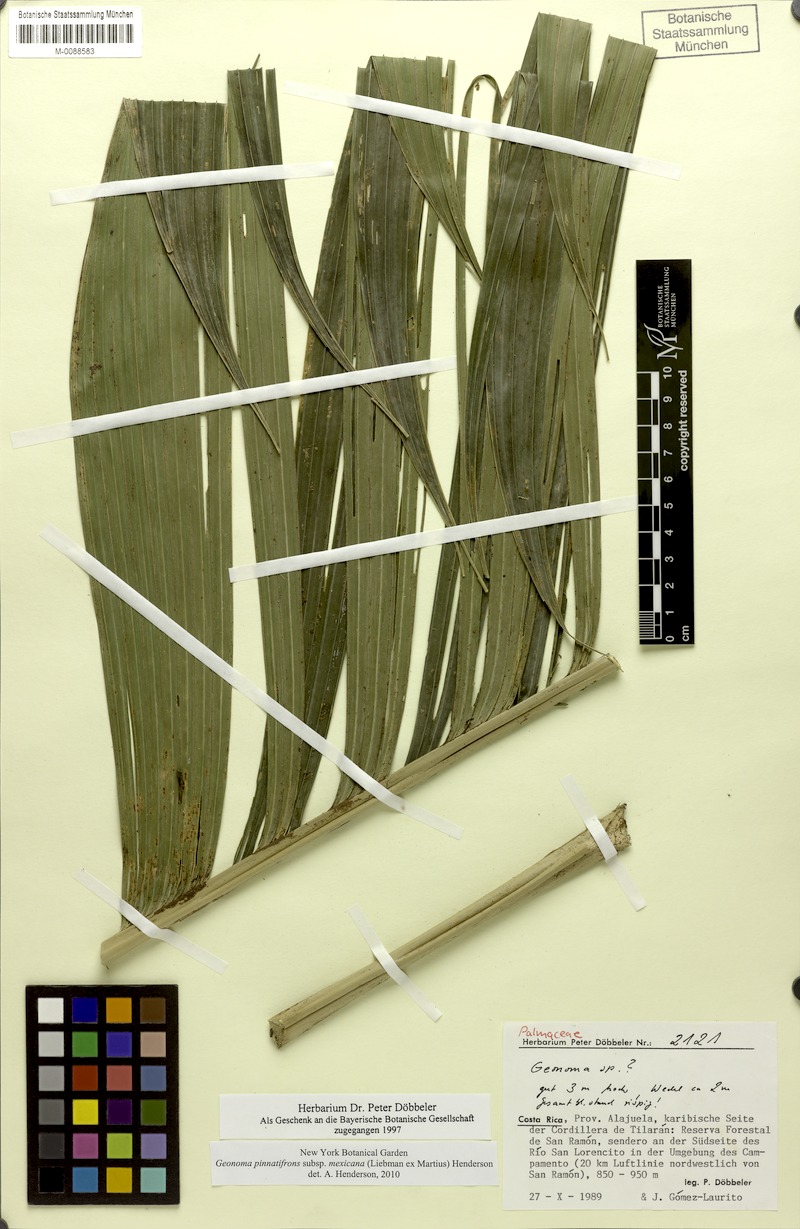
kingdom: Plantae
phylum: Tracheophyta
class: Liliopsida
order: Arecales
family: Arecaceae
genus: Geonoma
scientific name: Geonoma pinnatifrons
